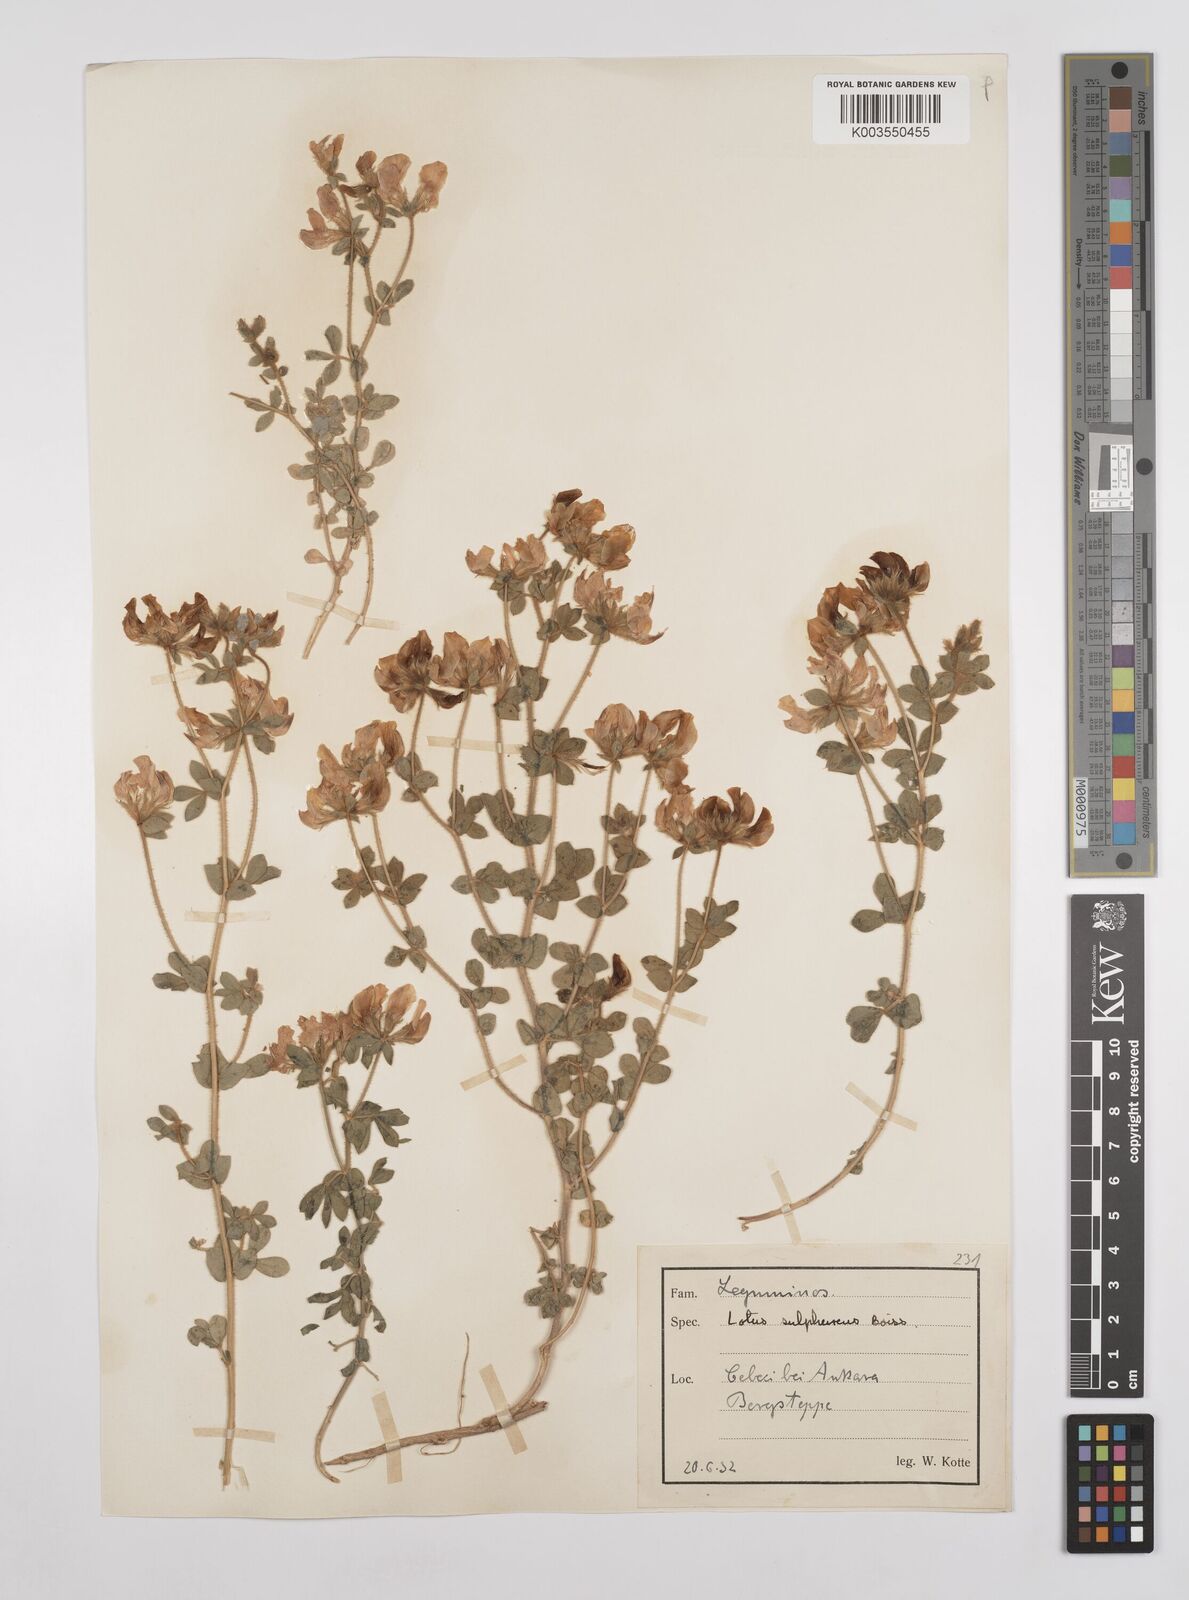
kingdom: Plantae
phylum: Tracheophyta
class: Magnoliopsida
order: Fabales
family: Fabaceae
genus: Lotus
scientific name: Lotus aegaeus
